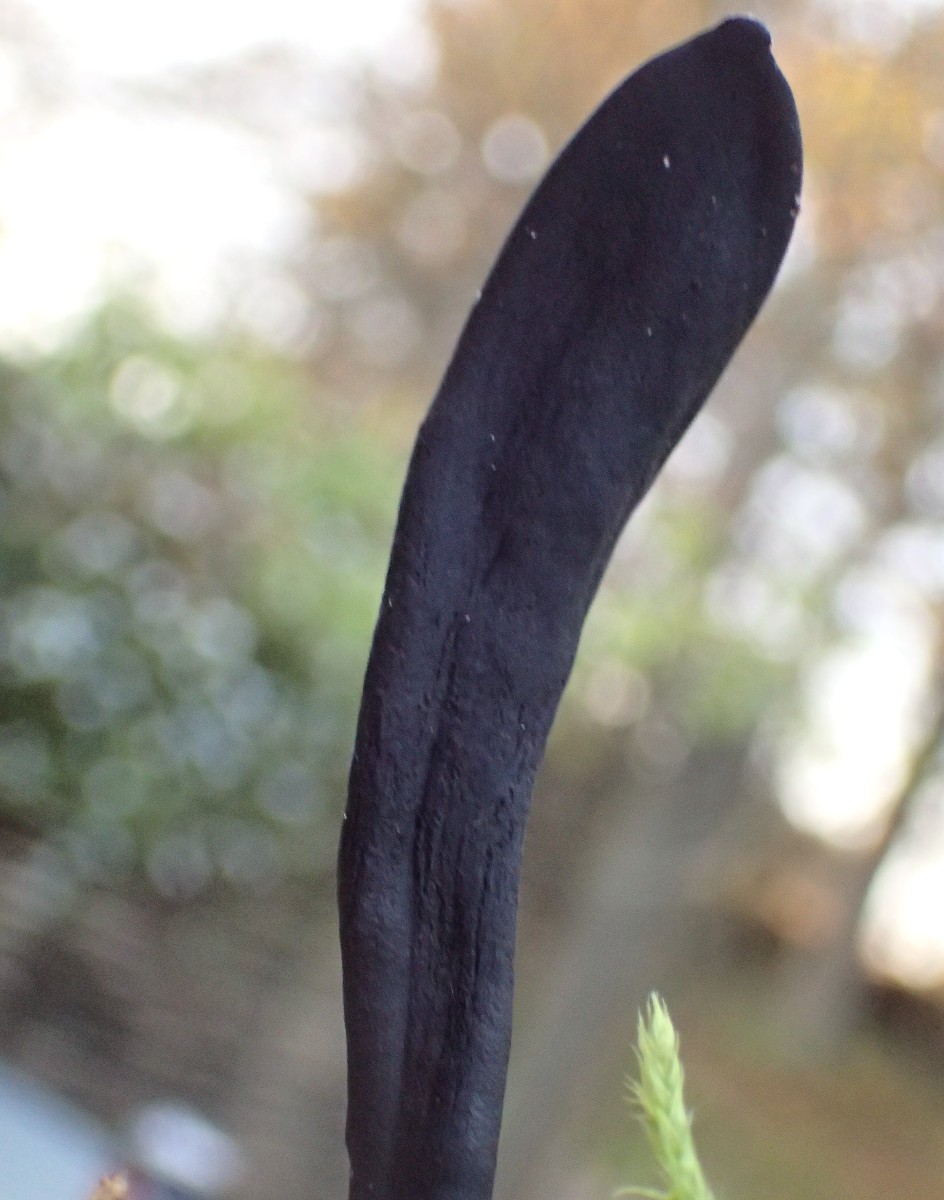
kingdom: Fungi
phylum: Ascomycota
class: Geoglossomycetes
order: Geoglossales
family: Geoglossaceae
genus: Geoglossum
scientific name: Geoglossum starbaeckii
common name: nordlig jordtunge
